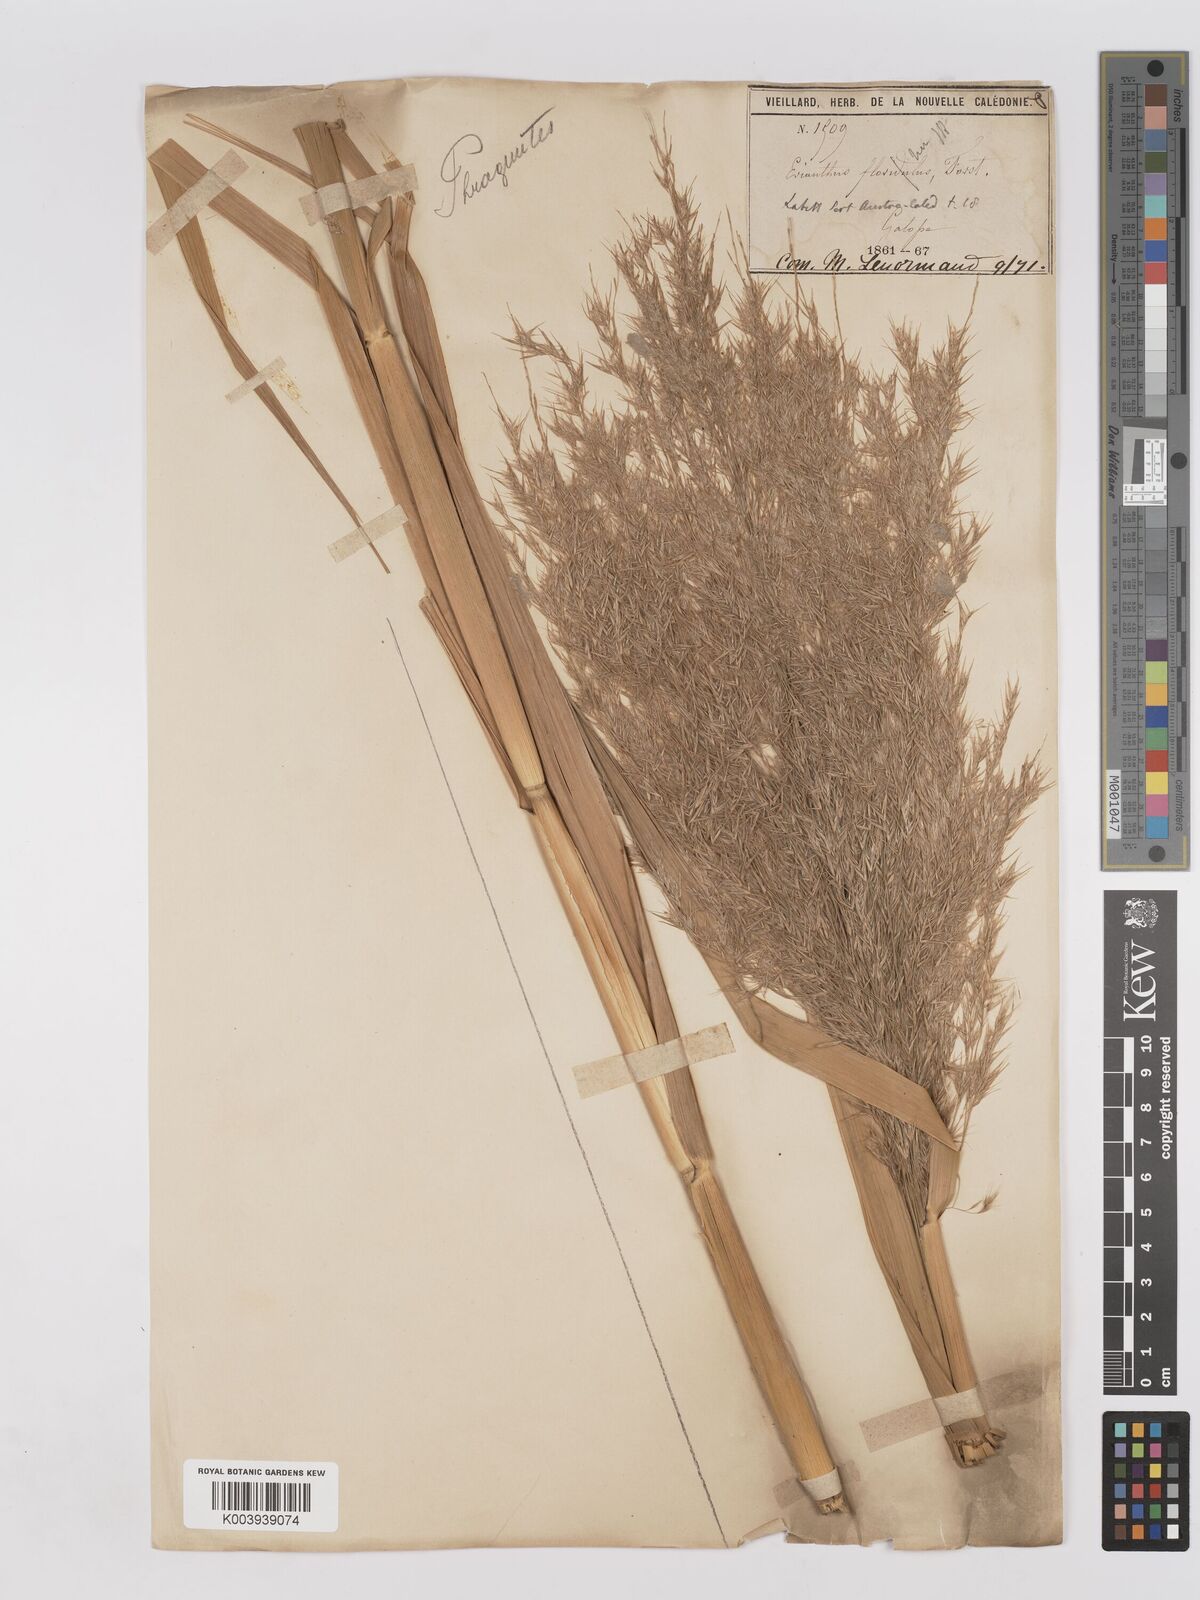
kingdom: Plantae
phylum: Tracheophyta
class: Liliopsida
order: Poales
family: Poaceae
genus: Phragmites
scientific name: Phragmites karka
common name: Tropical reed
